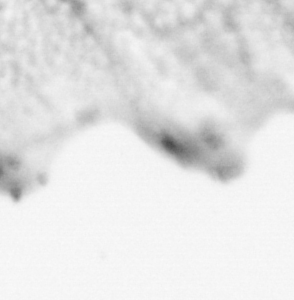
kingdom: Animalia
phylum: Chordata
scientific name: Chordata
